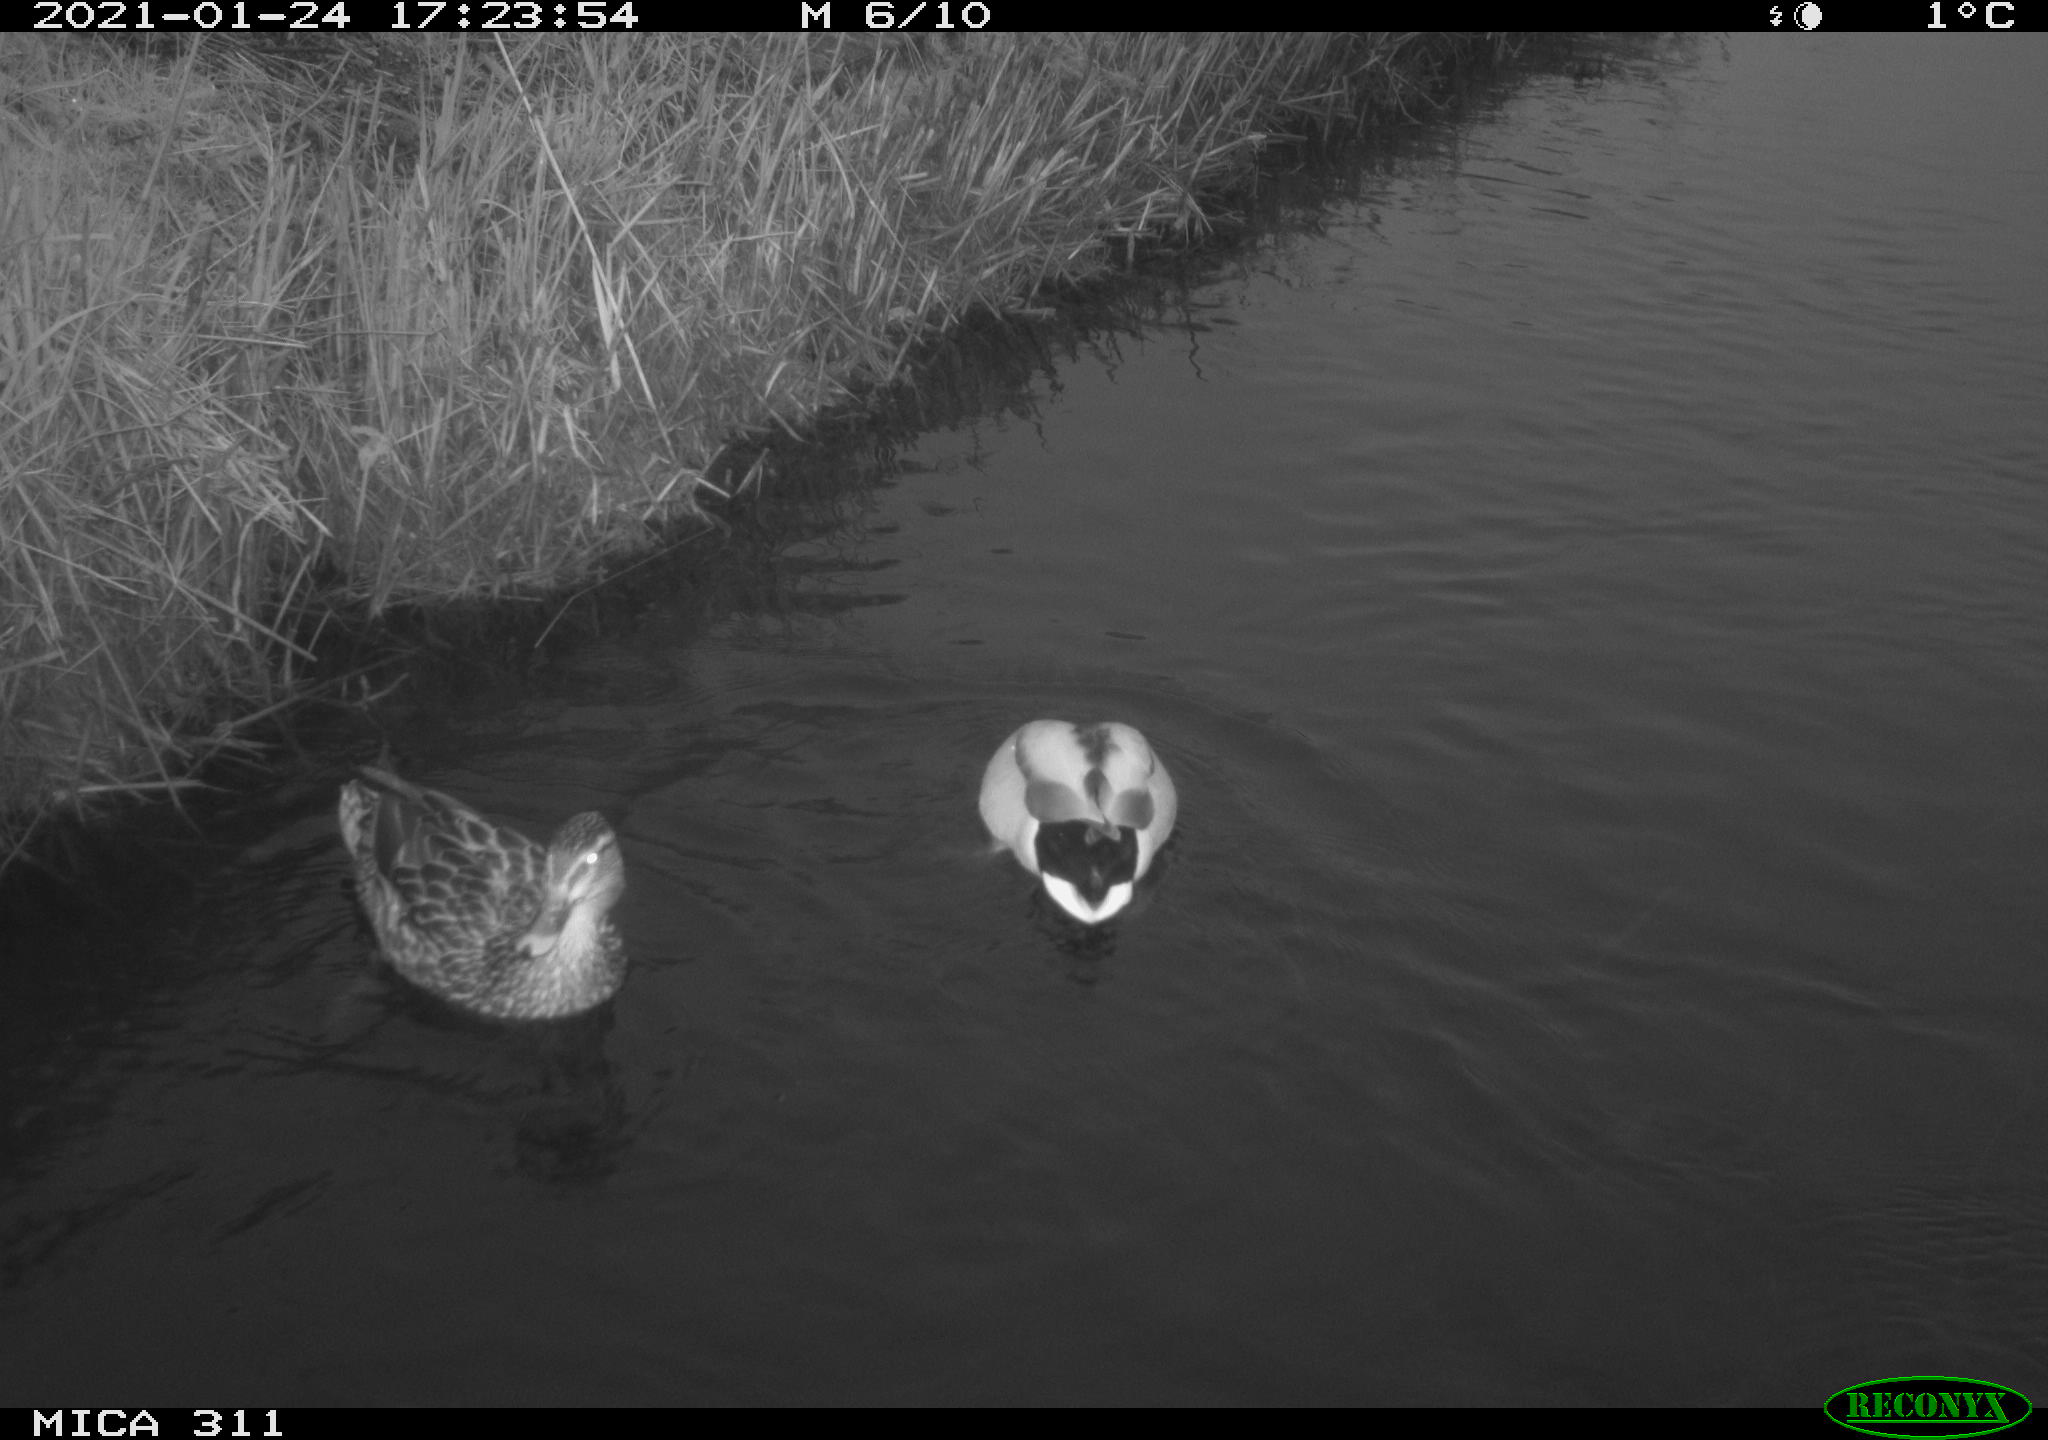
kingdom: Animalia
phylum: Chordata
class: Aves
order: Anseriformes
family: Anatidae
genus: Anas
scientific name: Anas
